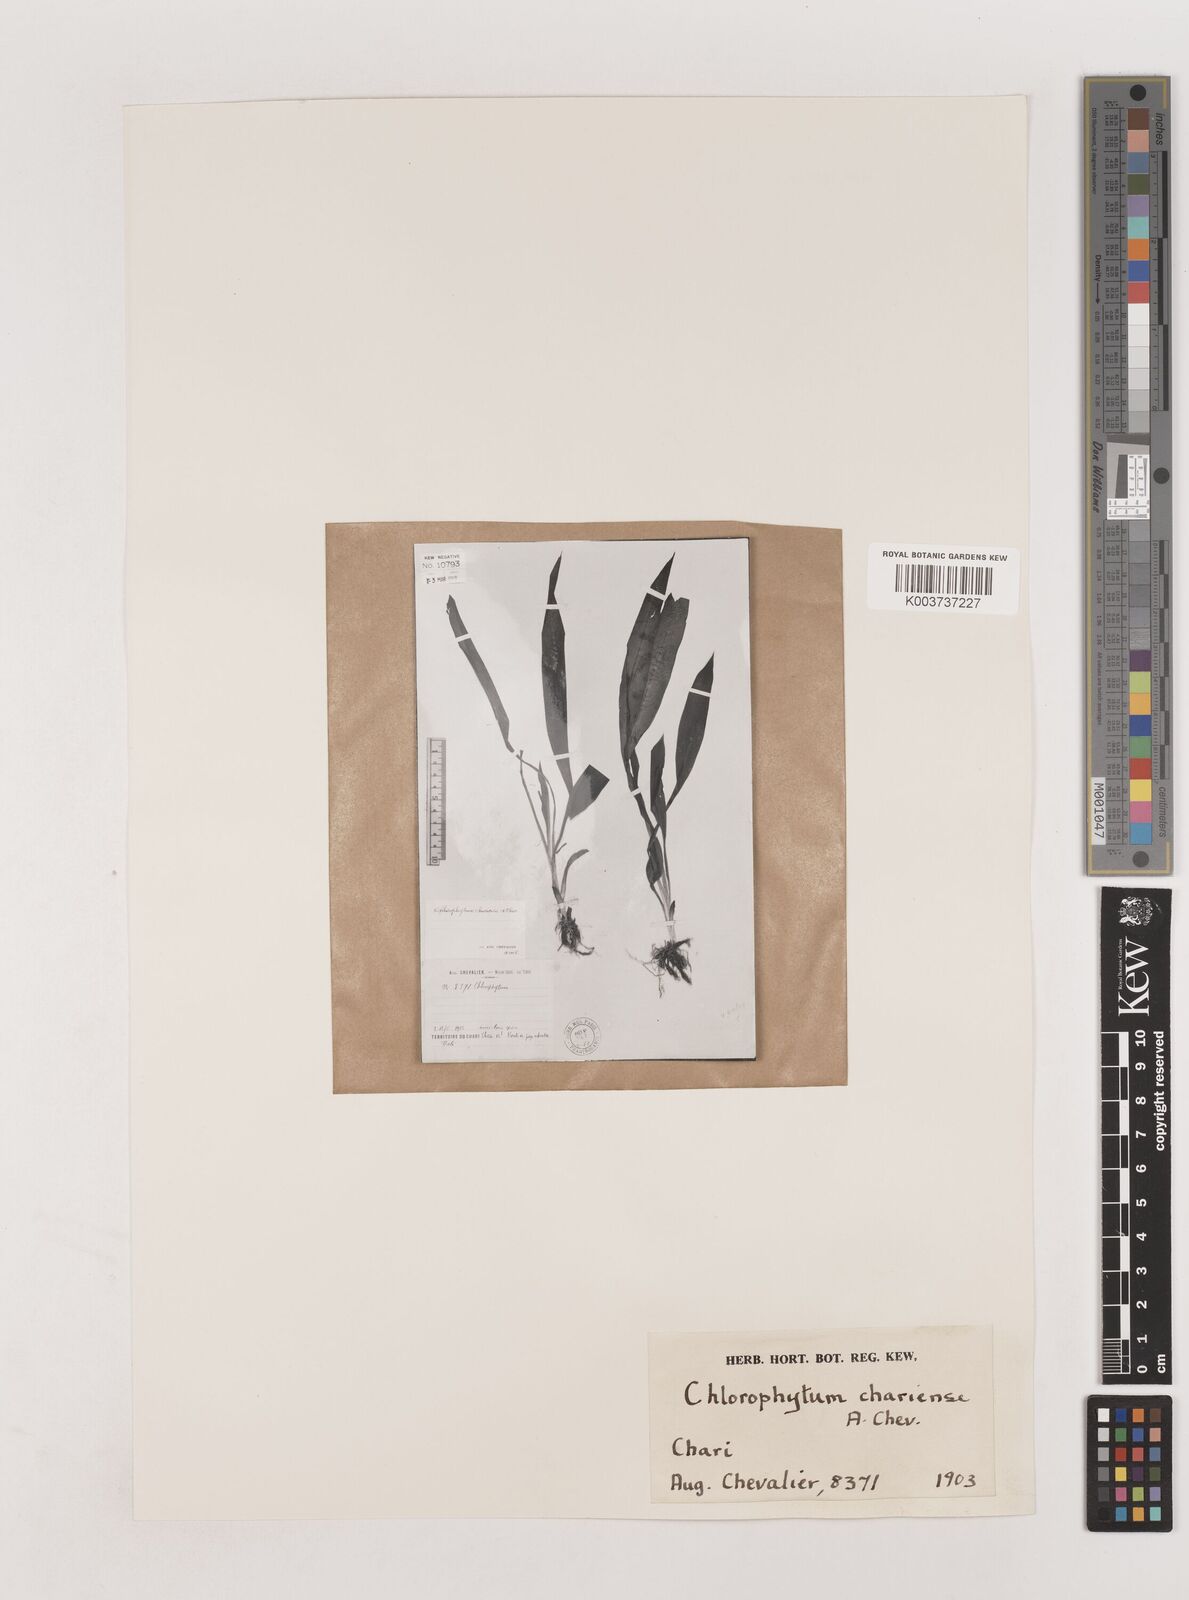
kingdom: Plantae
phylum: Tracheophyta
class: Liliopsida
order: Asparagales
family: Asparagaceae
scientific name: Asparagaceae
